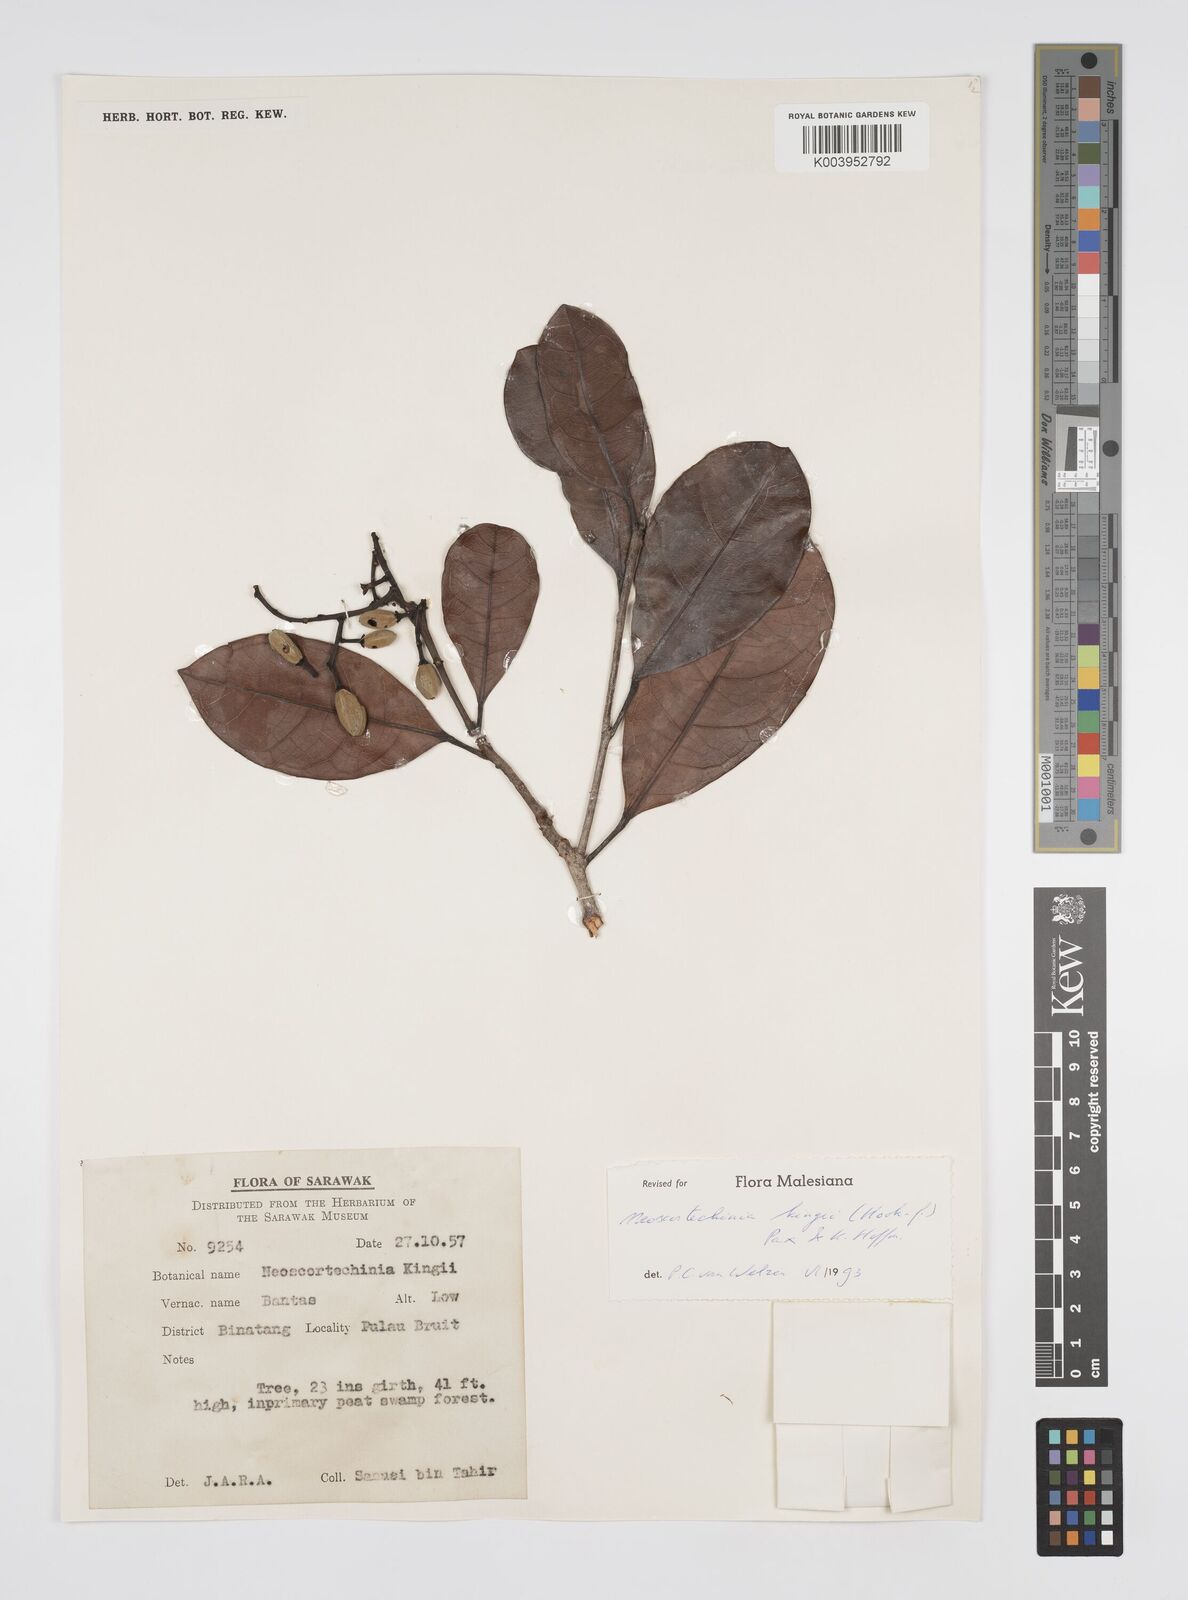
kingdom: Plantae
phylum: Tracheophyta
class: Magnoliopsida
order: Malpighiales
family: Euphorbiaceae
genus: Neoscortechinia
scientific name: Neoscortechinia kingii
